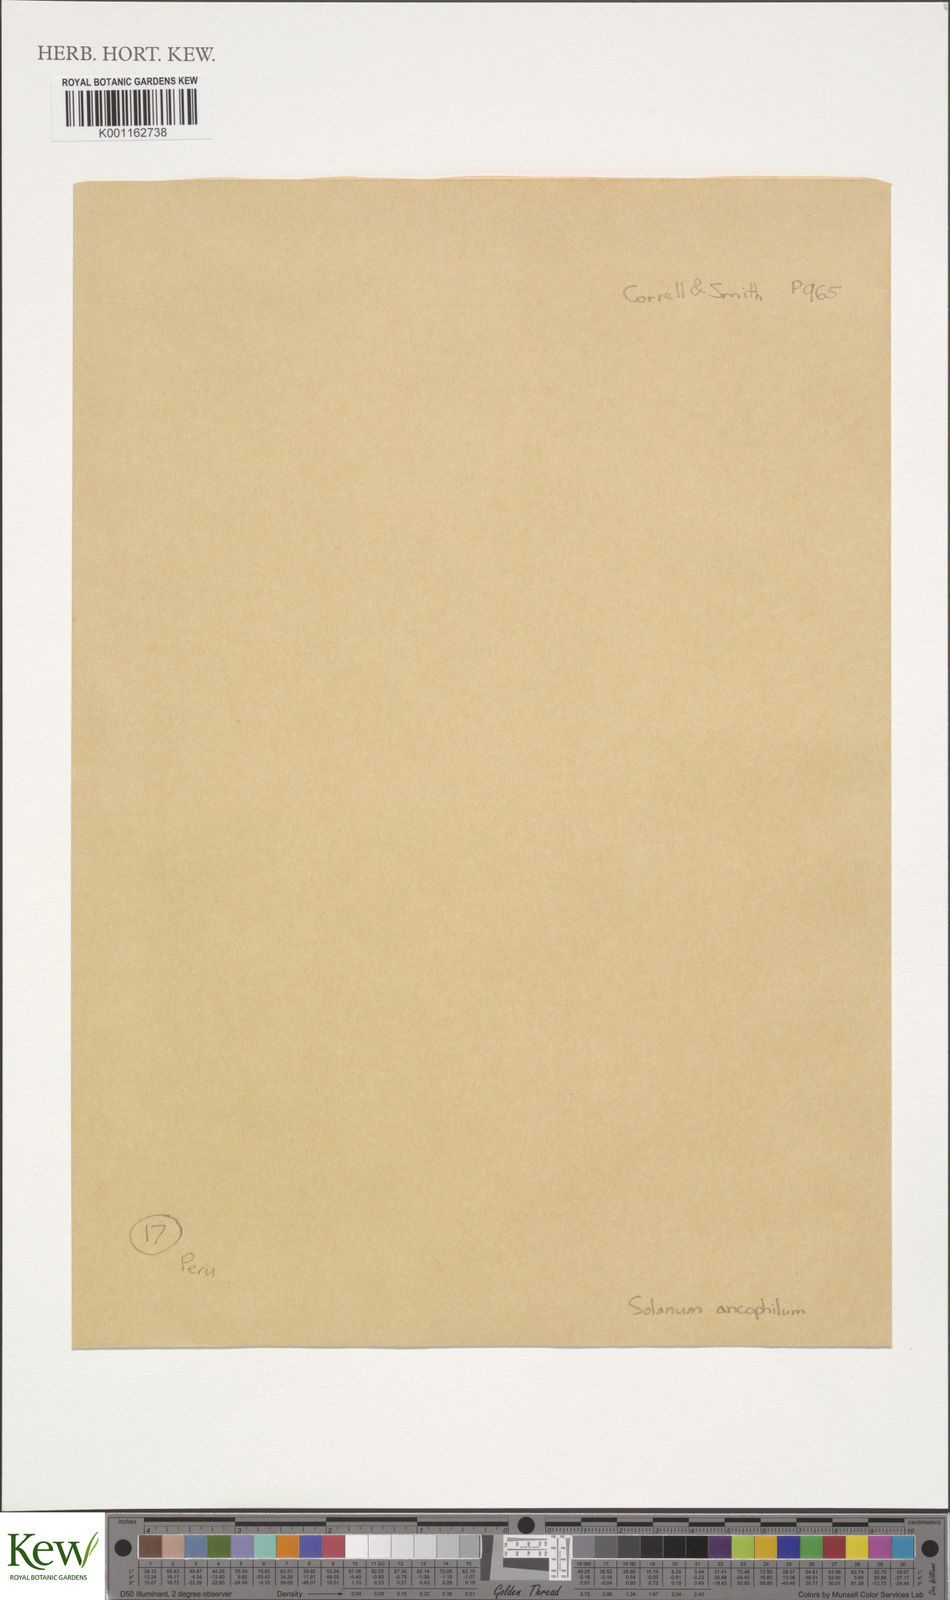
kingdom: Plantae
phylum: Tracheophyta
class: Magnoliopsida
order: Solanales
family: Solanaceae
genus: Solanum
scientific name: Solanum rhomboideilanceolatum
